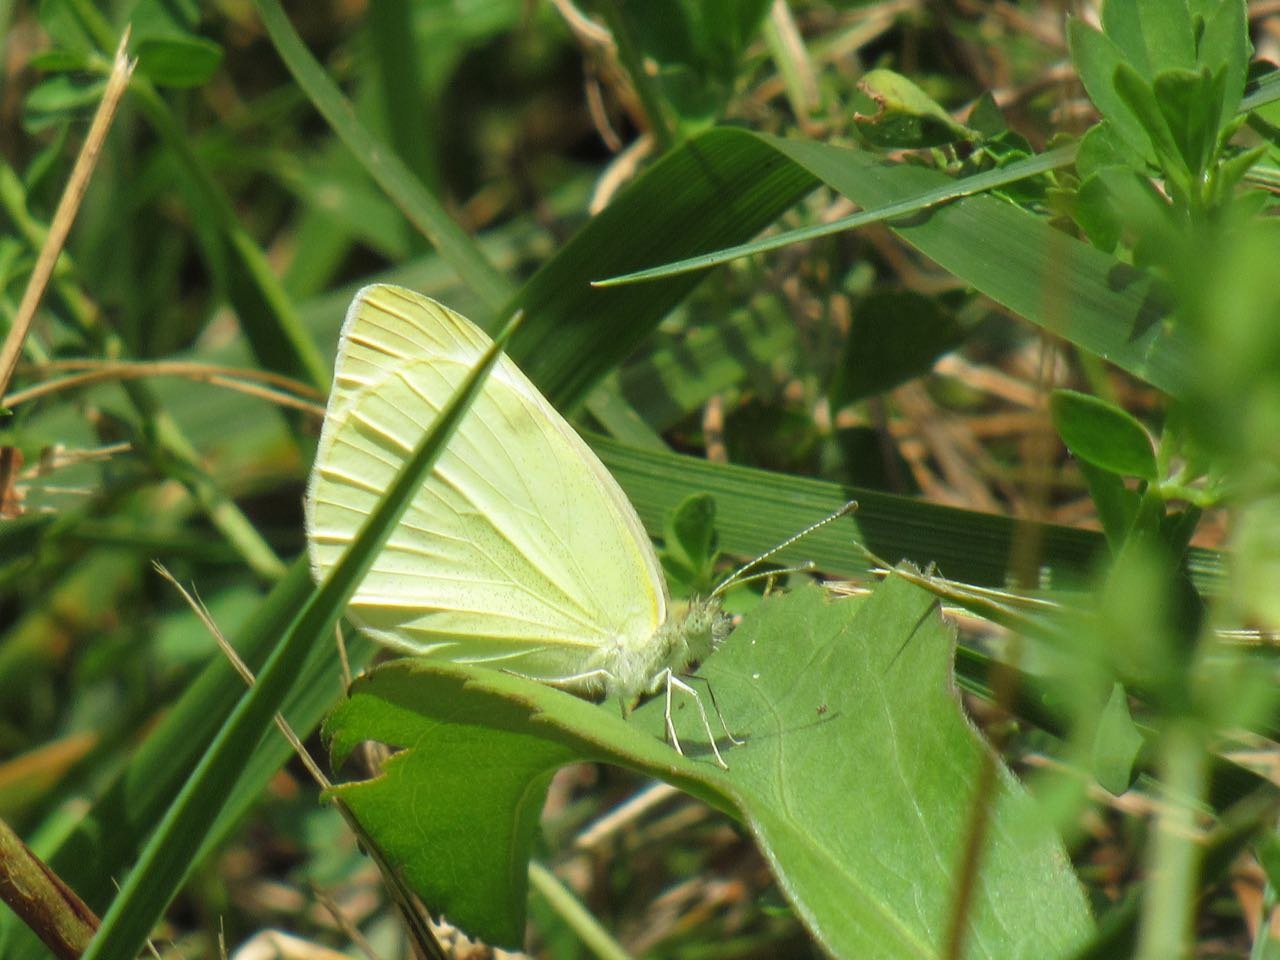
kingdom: Animalia
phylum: Arthropoda
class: Insecta
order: Lepidoptera
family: Pieridae
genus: Pieris
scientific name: Pieris rapae
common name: Cabbage White
